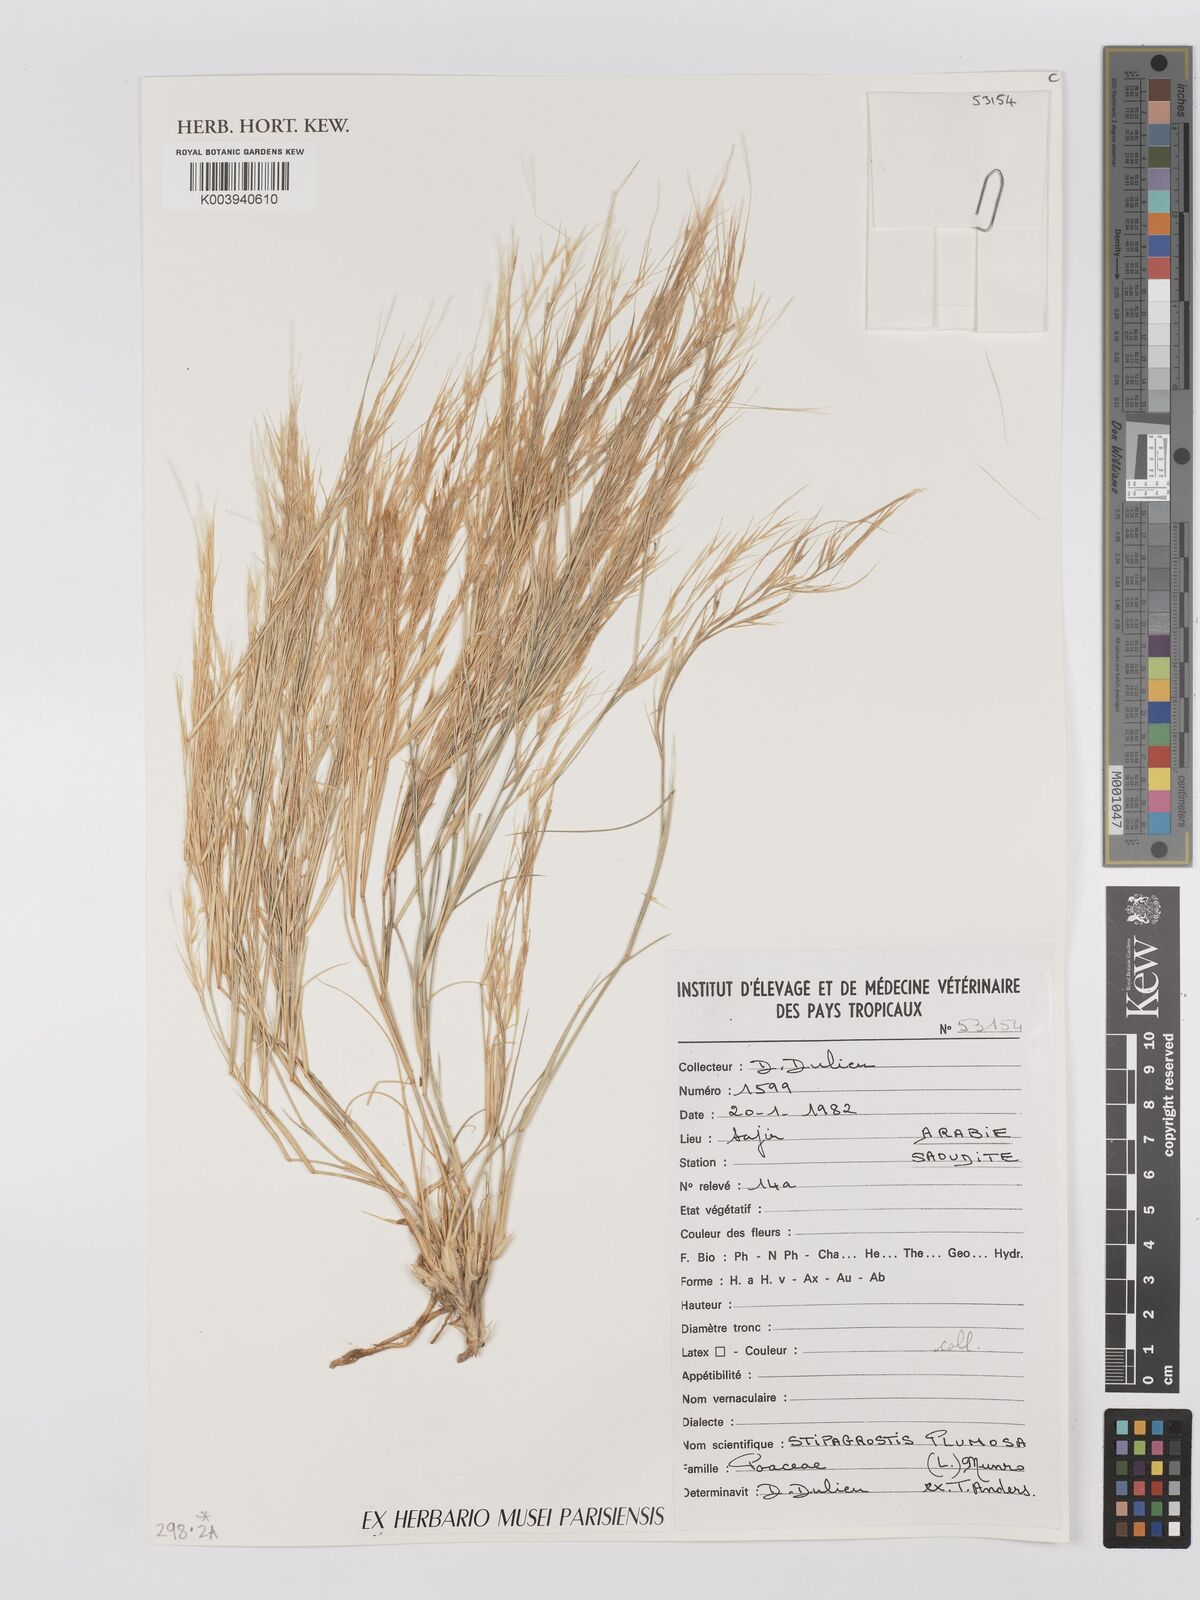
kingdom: Plantae
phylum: Tracheophyta
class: Liliopsida
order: Poales
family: Poaceae
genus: Stipagrostis
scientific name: Stipagrostis plumosa
